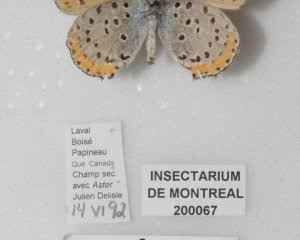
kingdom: Animalia
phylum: Arthropoda
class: Insecta
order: Lepidoptera
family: Sesiidae
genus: Sesia
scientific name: Sesia Lycaena hyllus
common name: Bronze Copper
